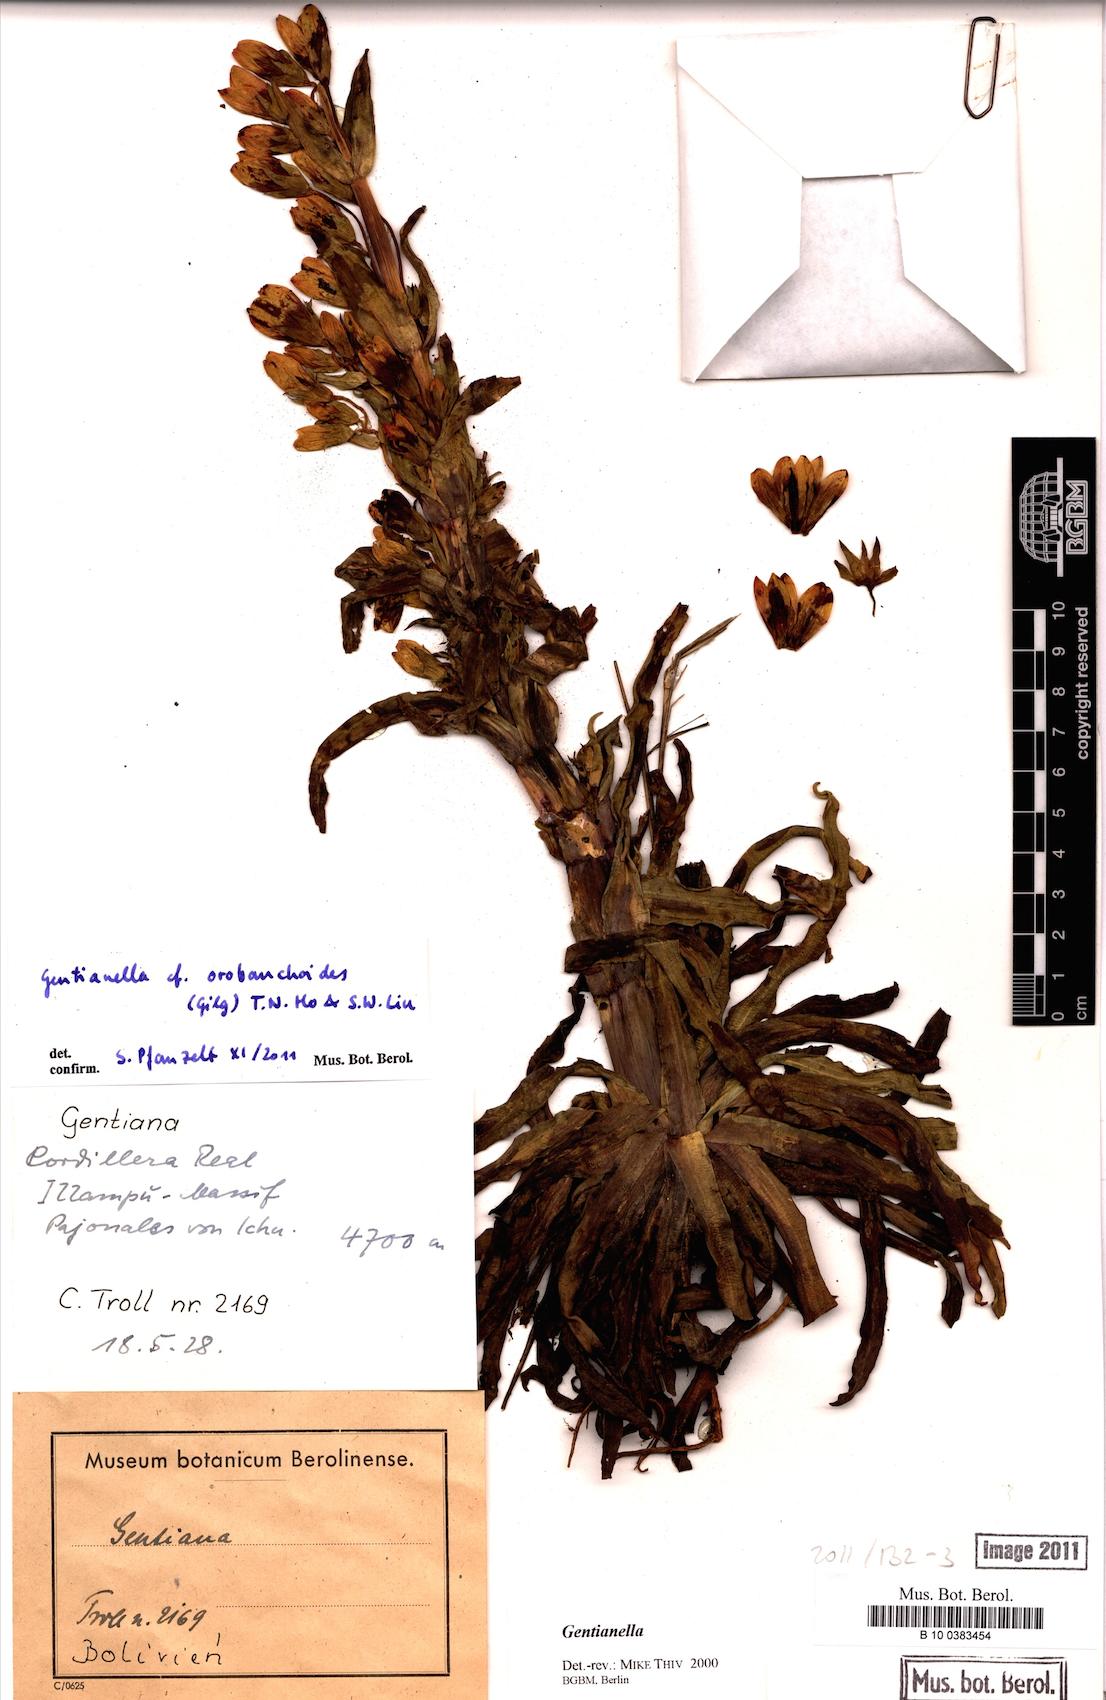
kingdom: Plantae
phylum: Tracheophyta
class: Magnoliopsida
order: Gentianales
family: Gentianaceae
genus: Gentianella
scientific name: Gentianella punicea
